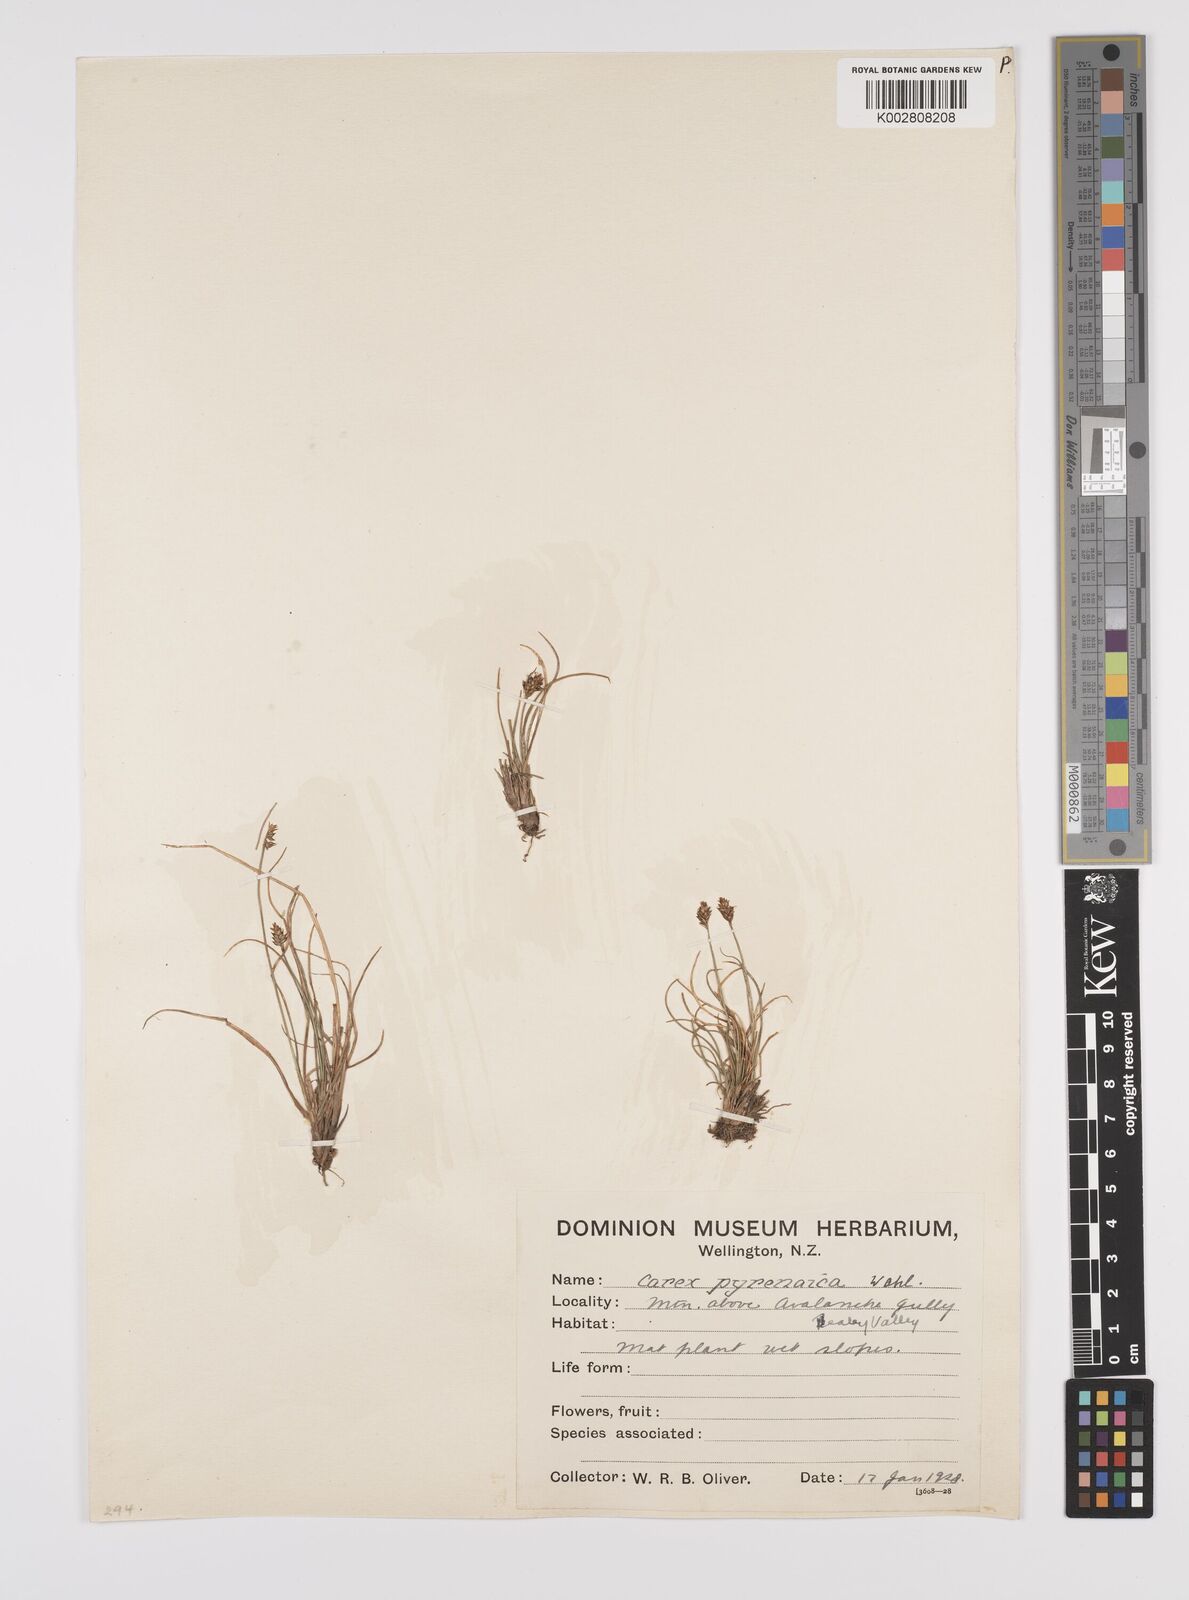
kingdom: Plantae
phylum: Tracheophyta
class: Liliopsida
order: Poales
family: Cyperaceae
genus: Carex
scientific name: Carex pyrenaica
